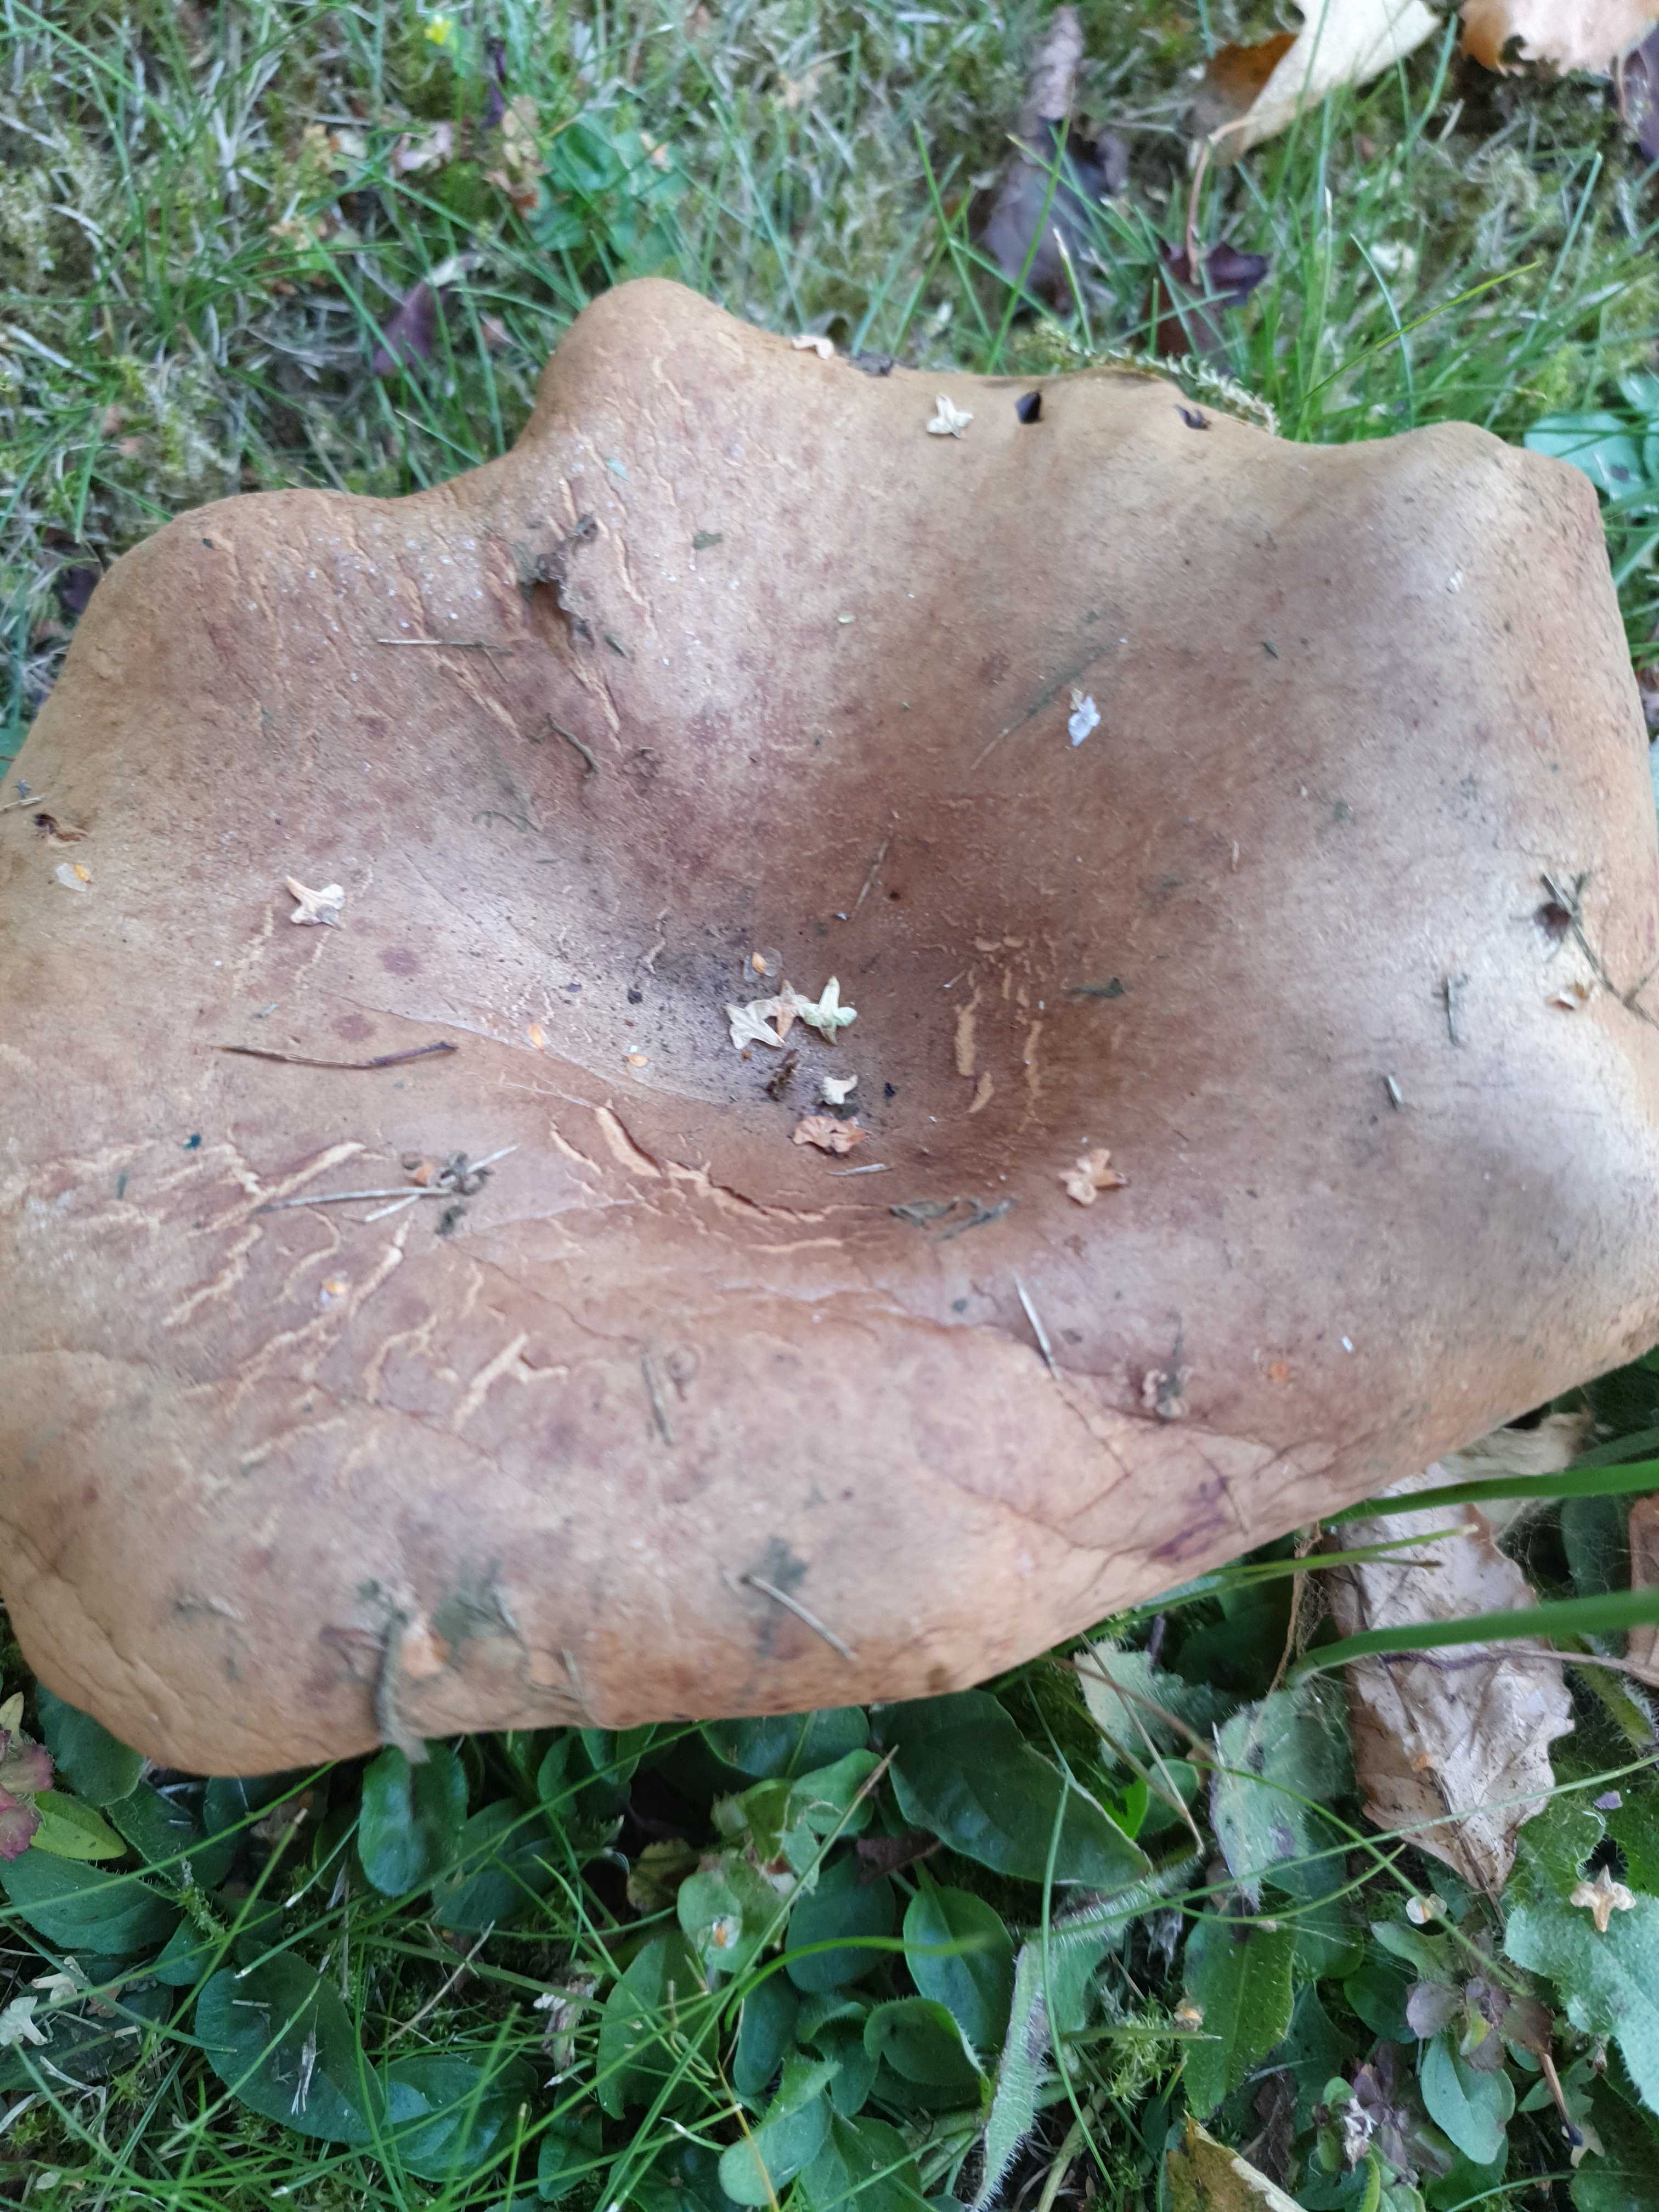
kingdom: Fungi
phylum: Basidiomycota
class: Agaricomycetes
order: Boletales
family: Paxillaceae
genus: Paxillus
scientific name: Paxillus
